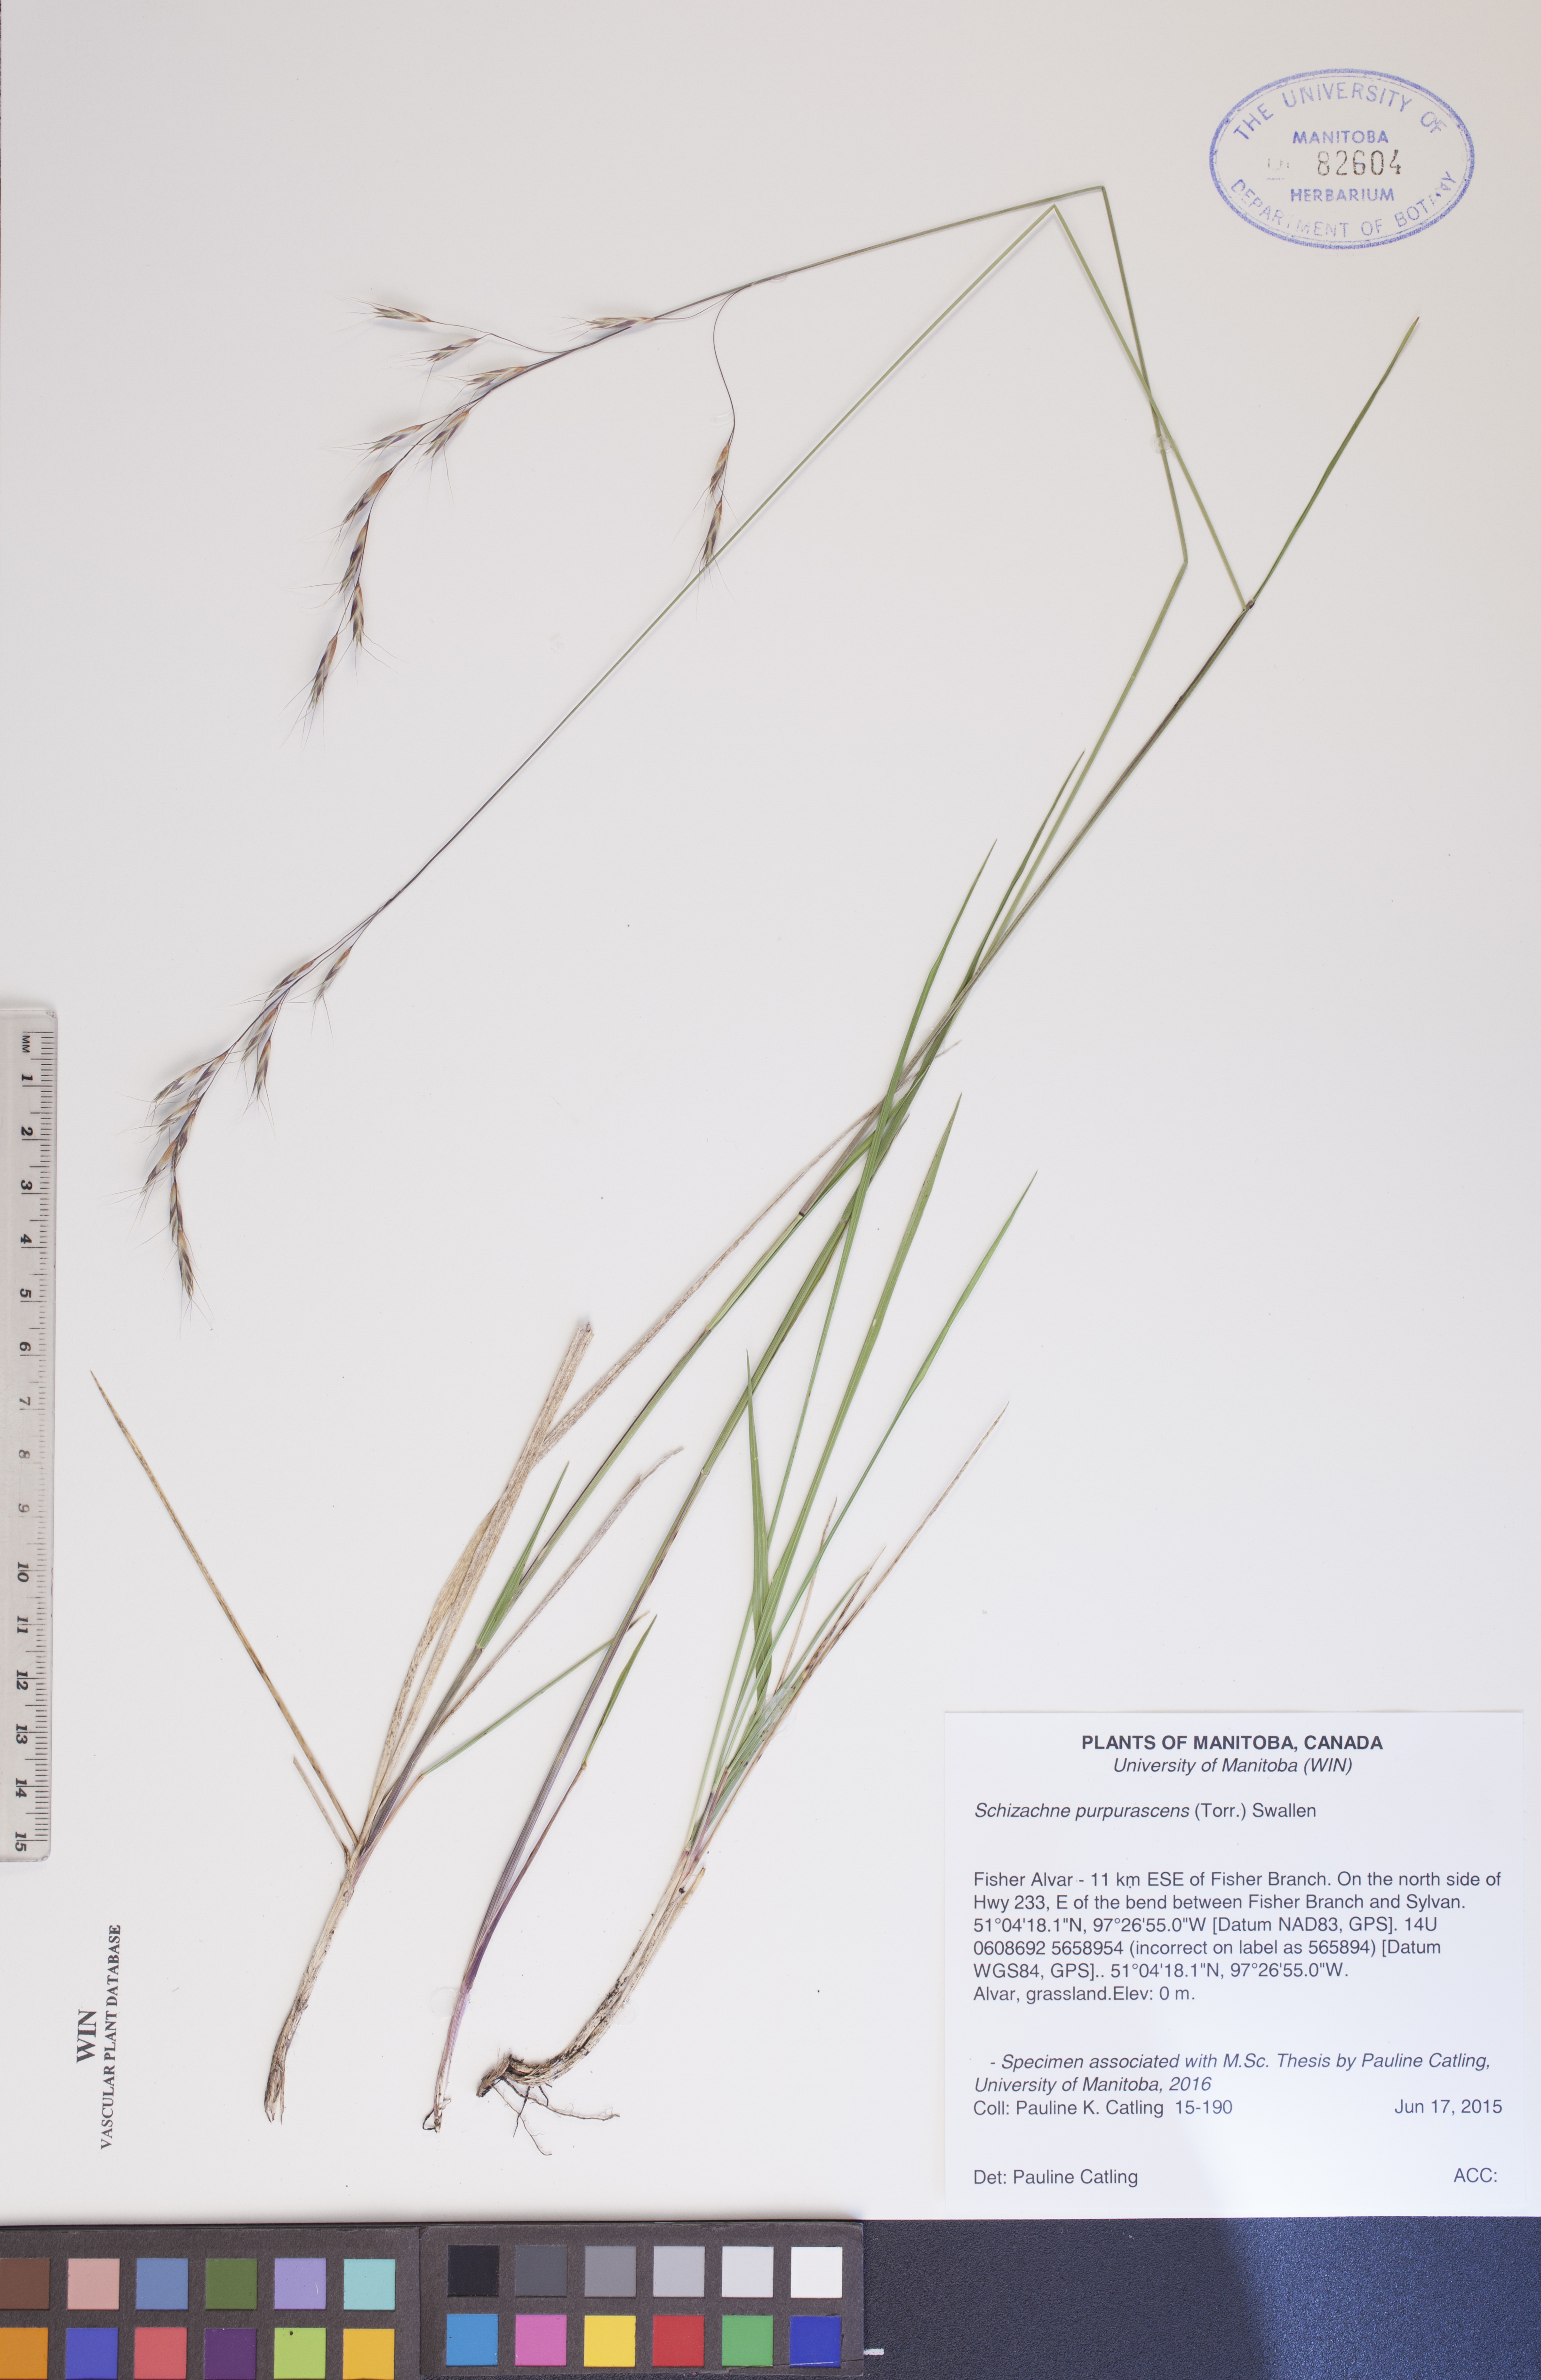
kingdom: Plantae
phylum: Tracheophyta
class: Liliopsida
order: Poales
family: Poaceae
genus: Schizachne
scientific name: Schizachne purpurascens
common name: False melic
